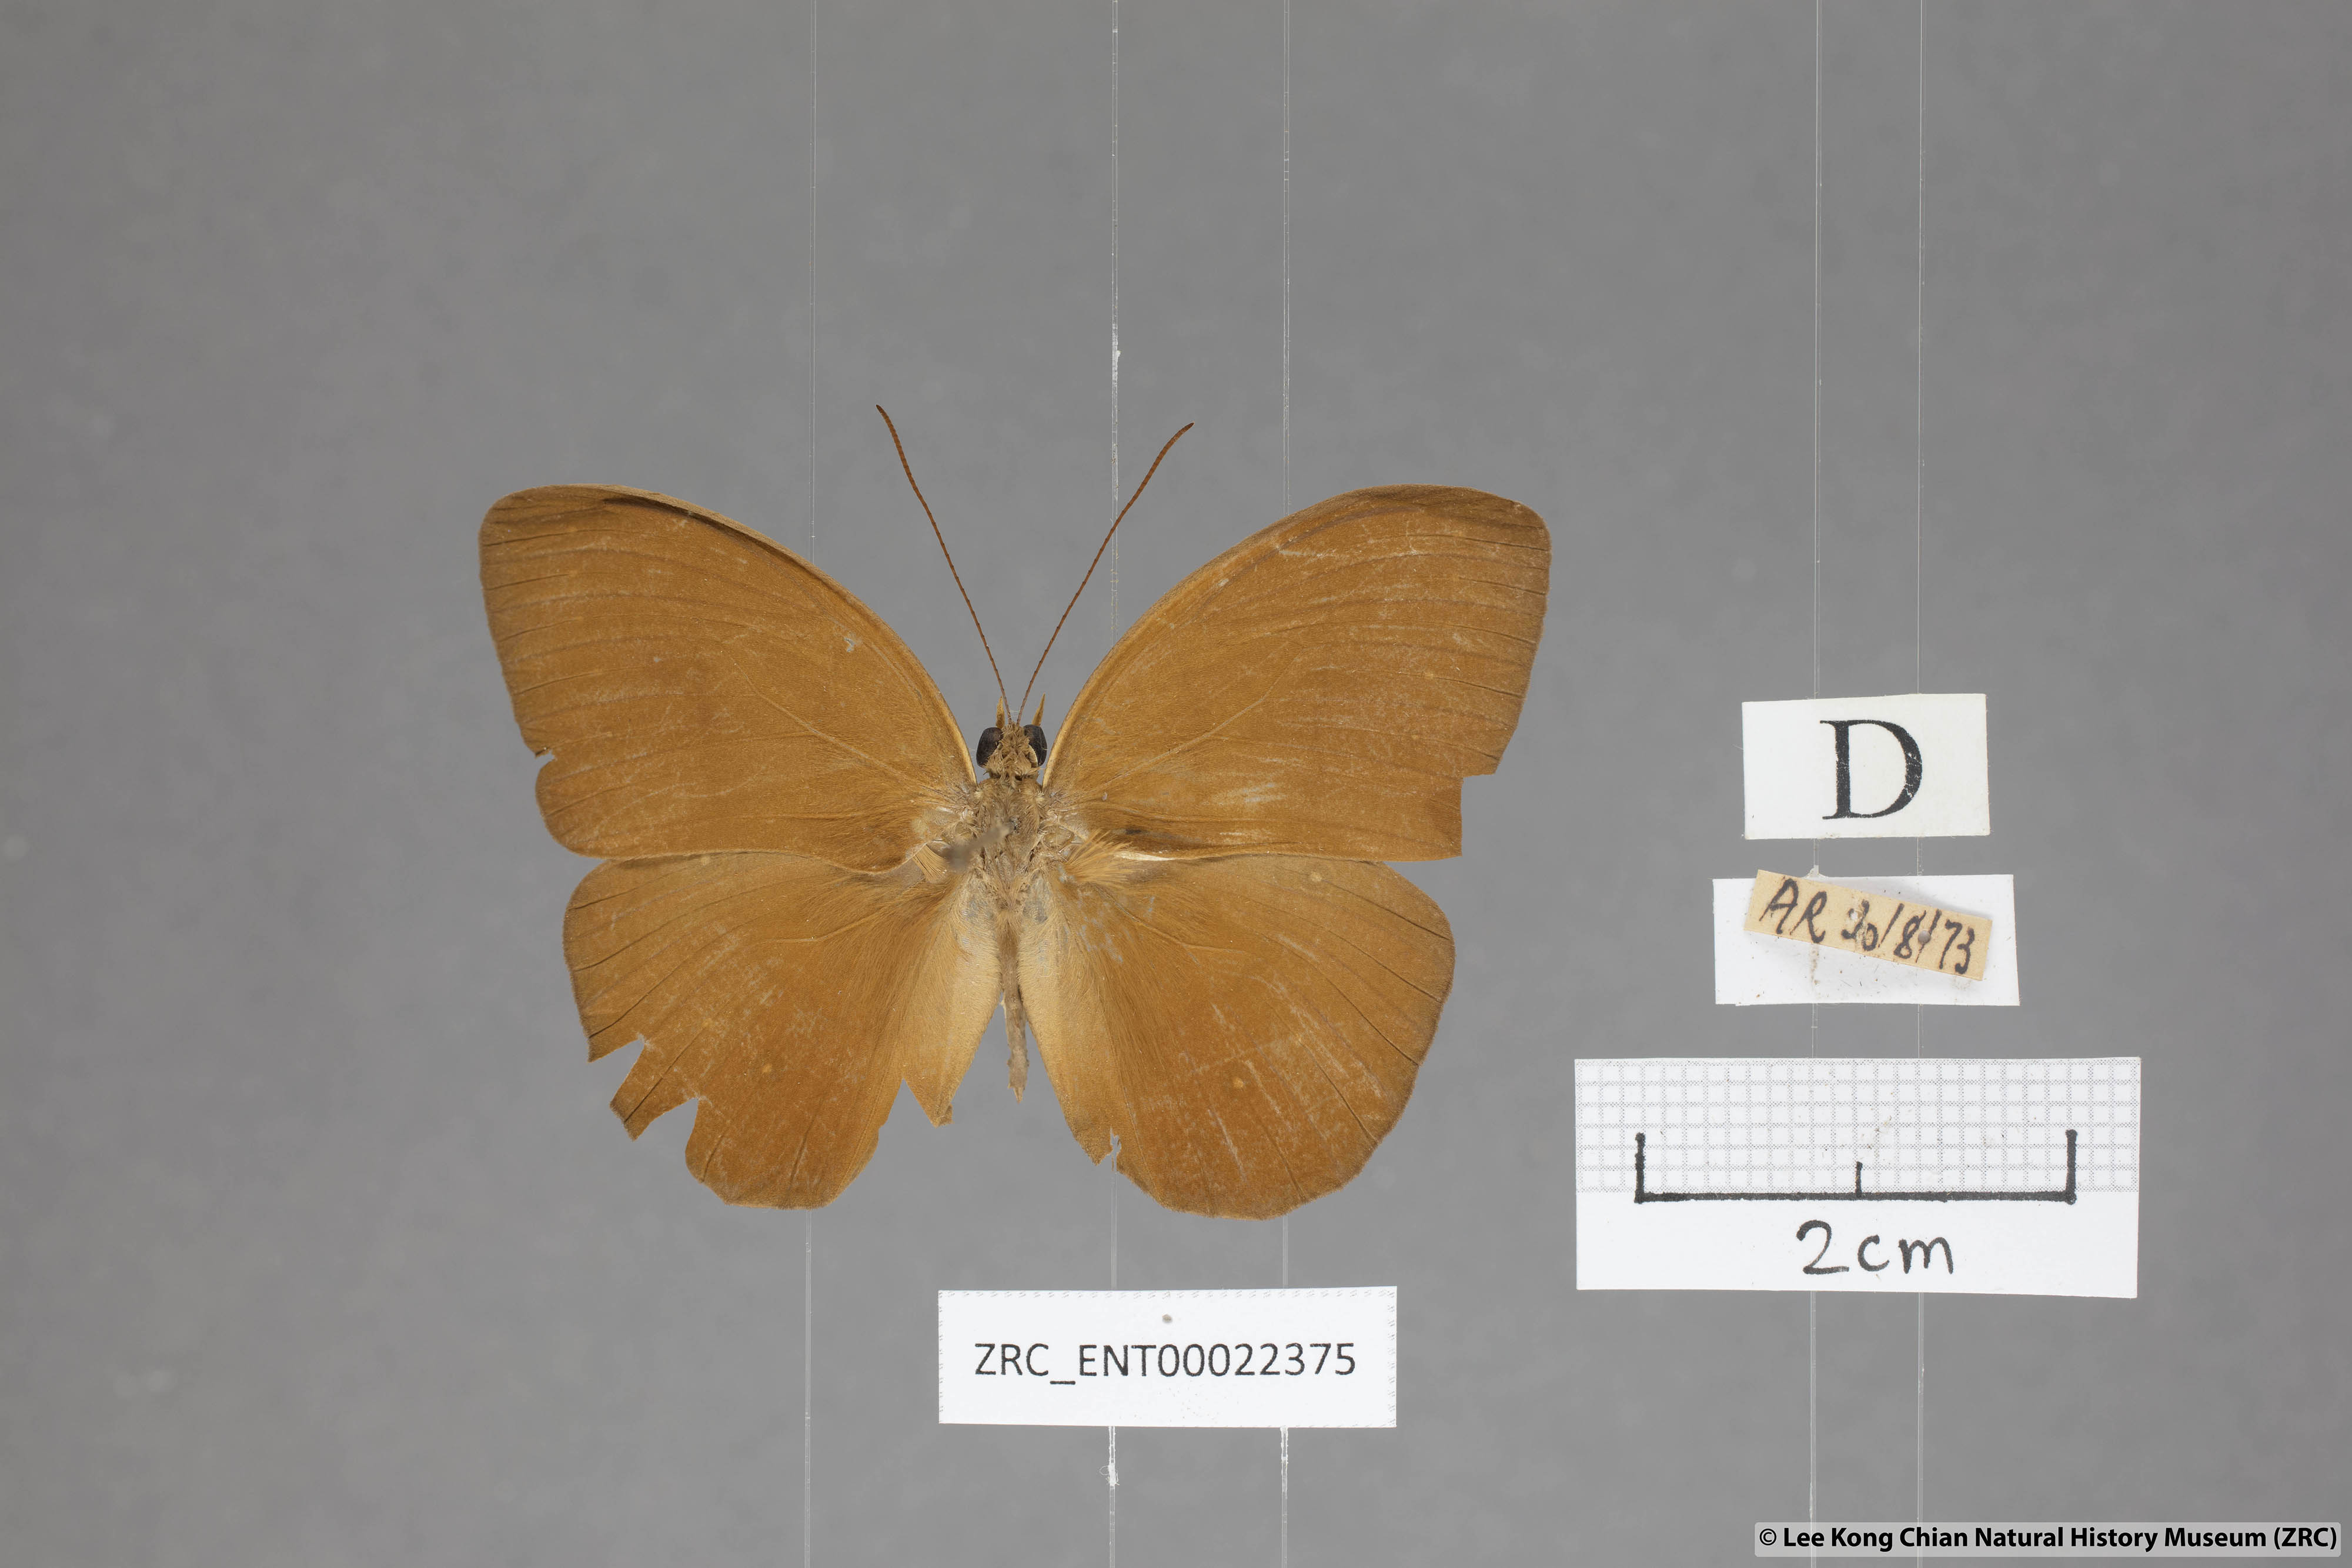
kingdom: Animalia
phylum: Arthropoda
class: Insecta
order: Lepidoptera
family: Nymphalidae
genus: Faunis
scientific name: Faunis gracilis
